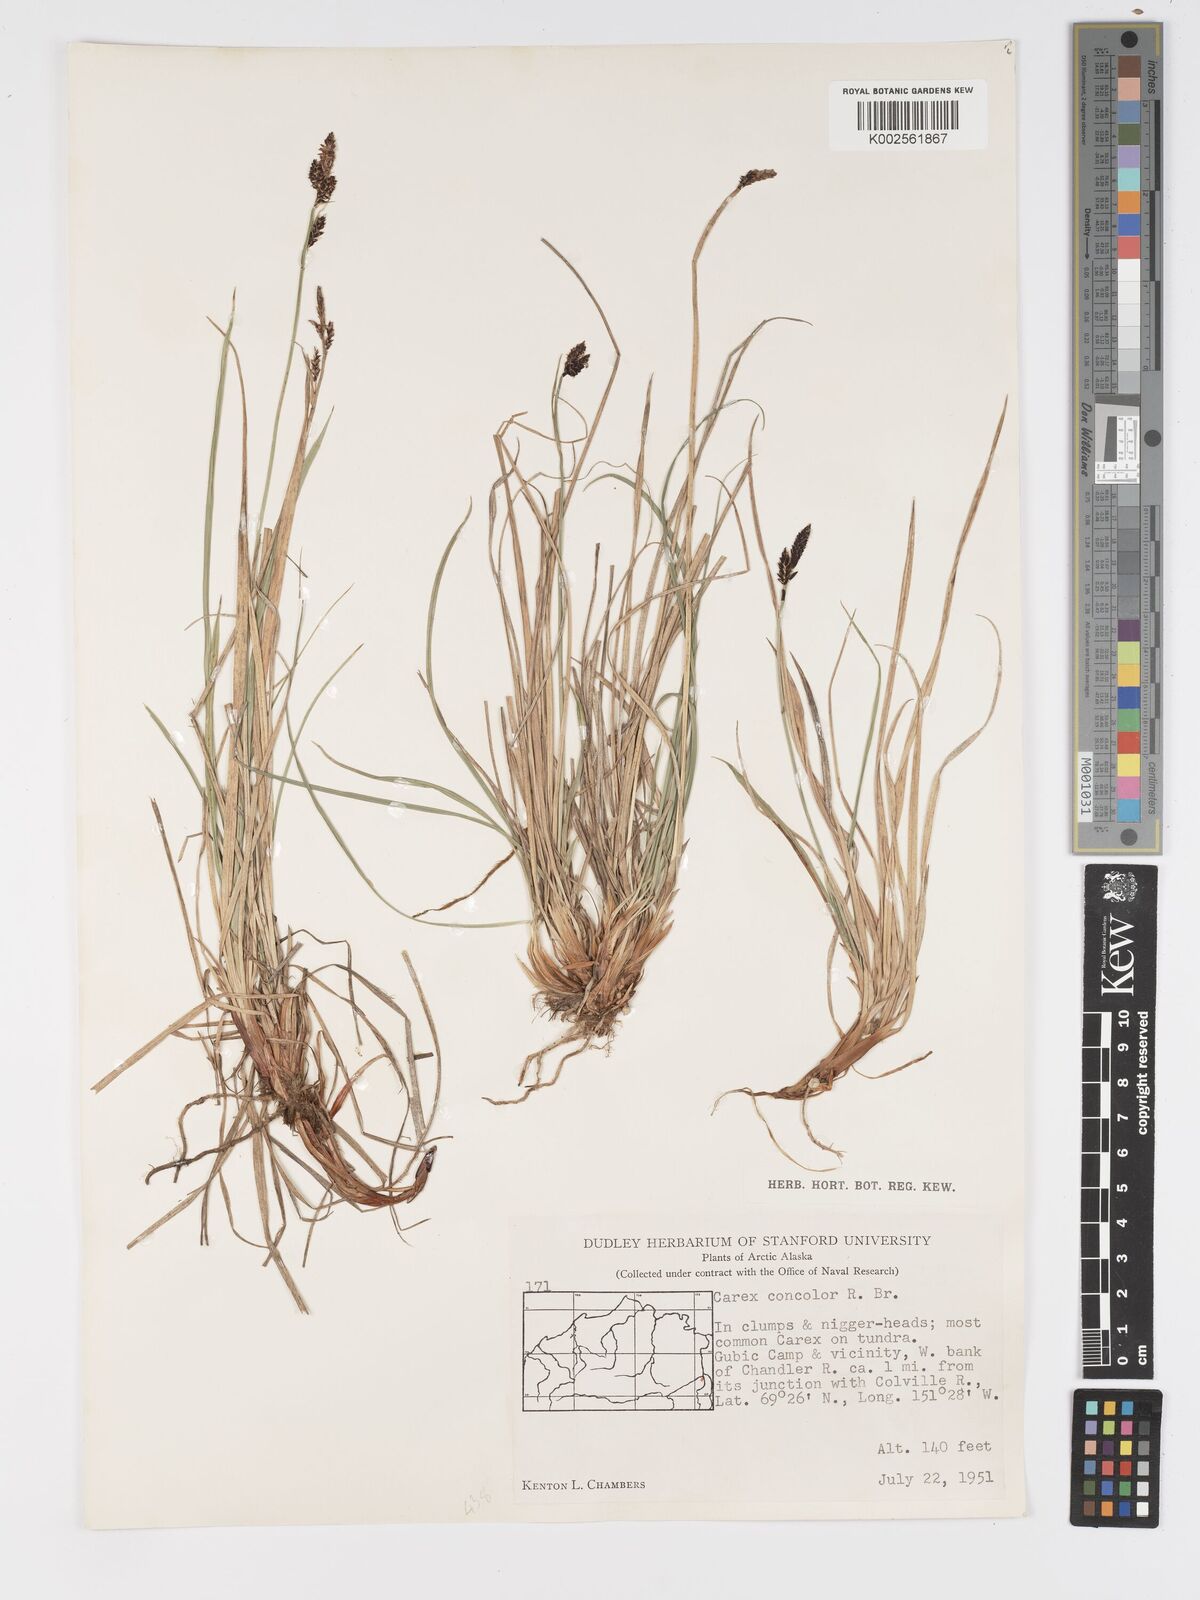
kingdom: Plantae
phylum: Tracheophyta
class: Liliopsida
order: Poales
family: Cyperaceae
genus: Carex
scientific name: Carex bigelowii
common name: Stiff sedge
